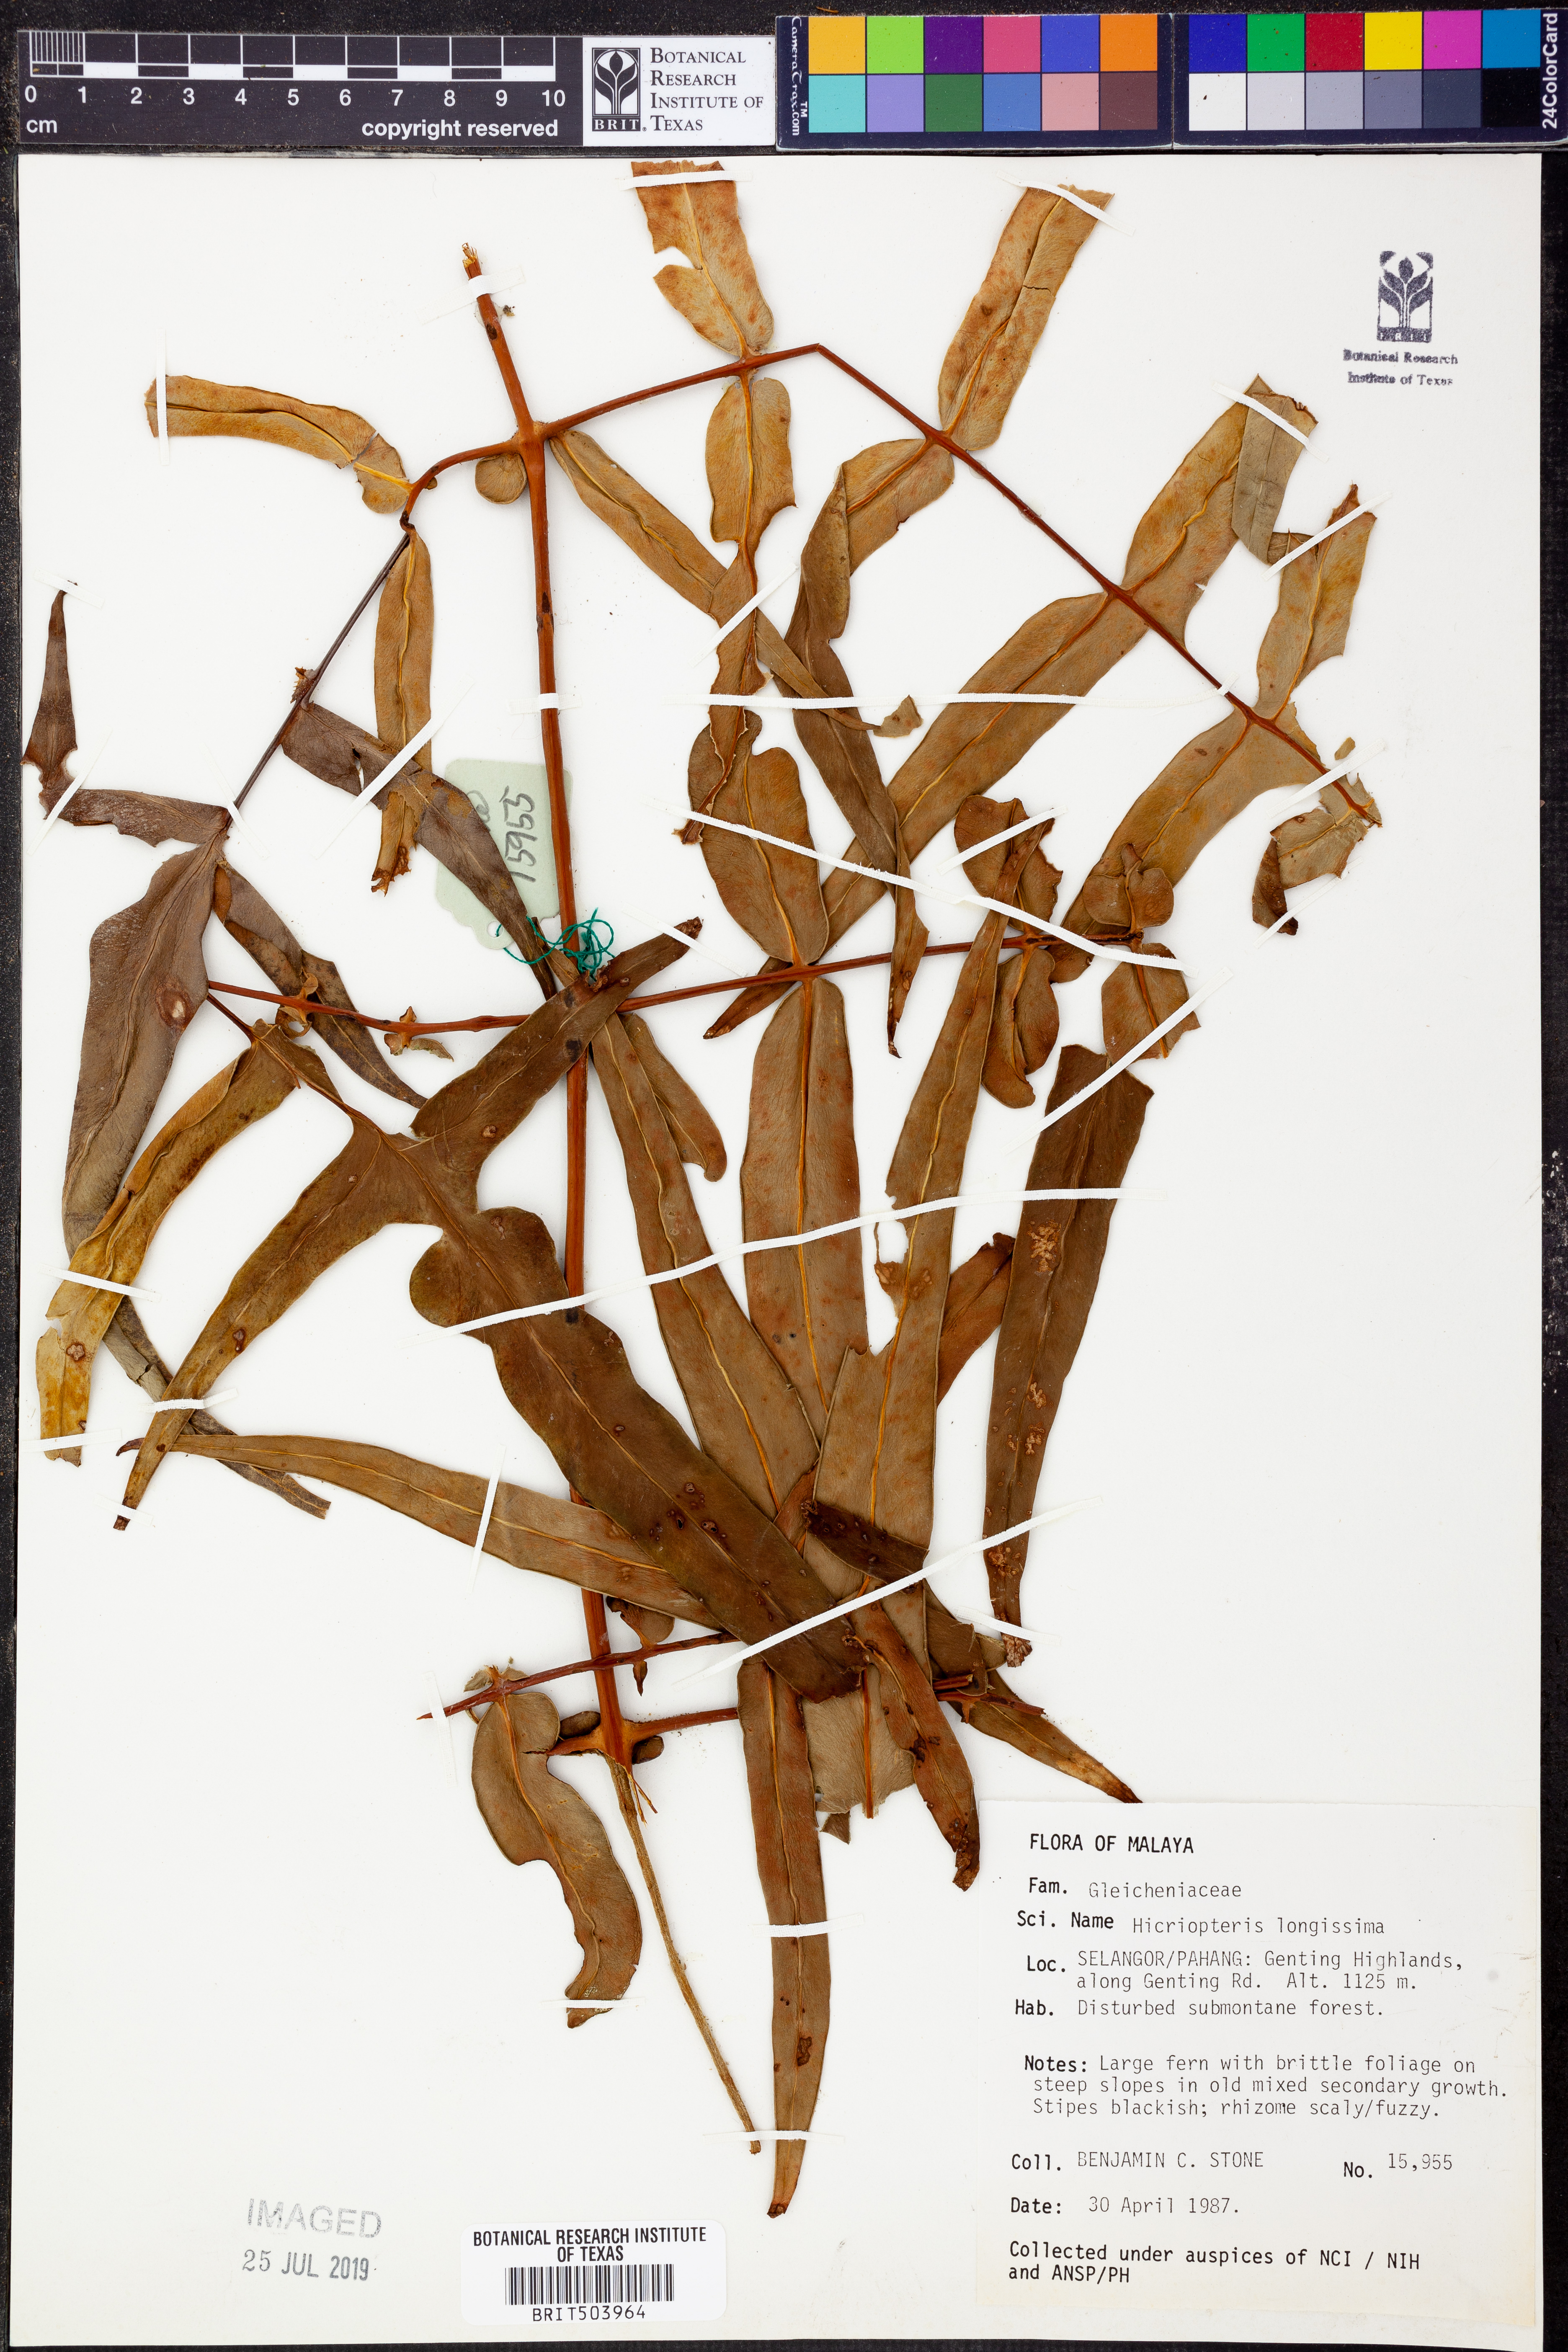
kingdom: Plantae
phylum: Tracheophyta
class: Polypodiopsida
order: Gleicheniales
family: Gleicheniaceae
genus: Diplopterygium
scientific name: Diplopterygium longissimum
